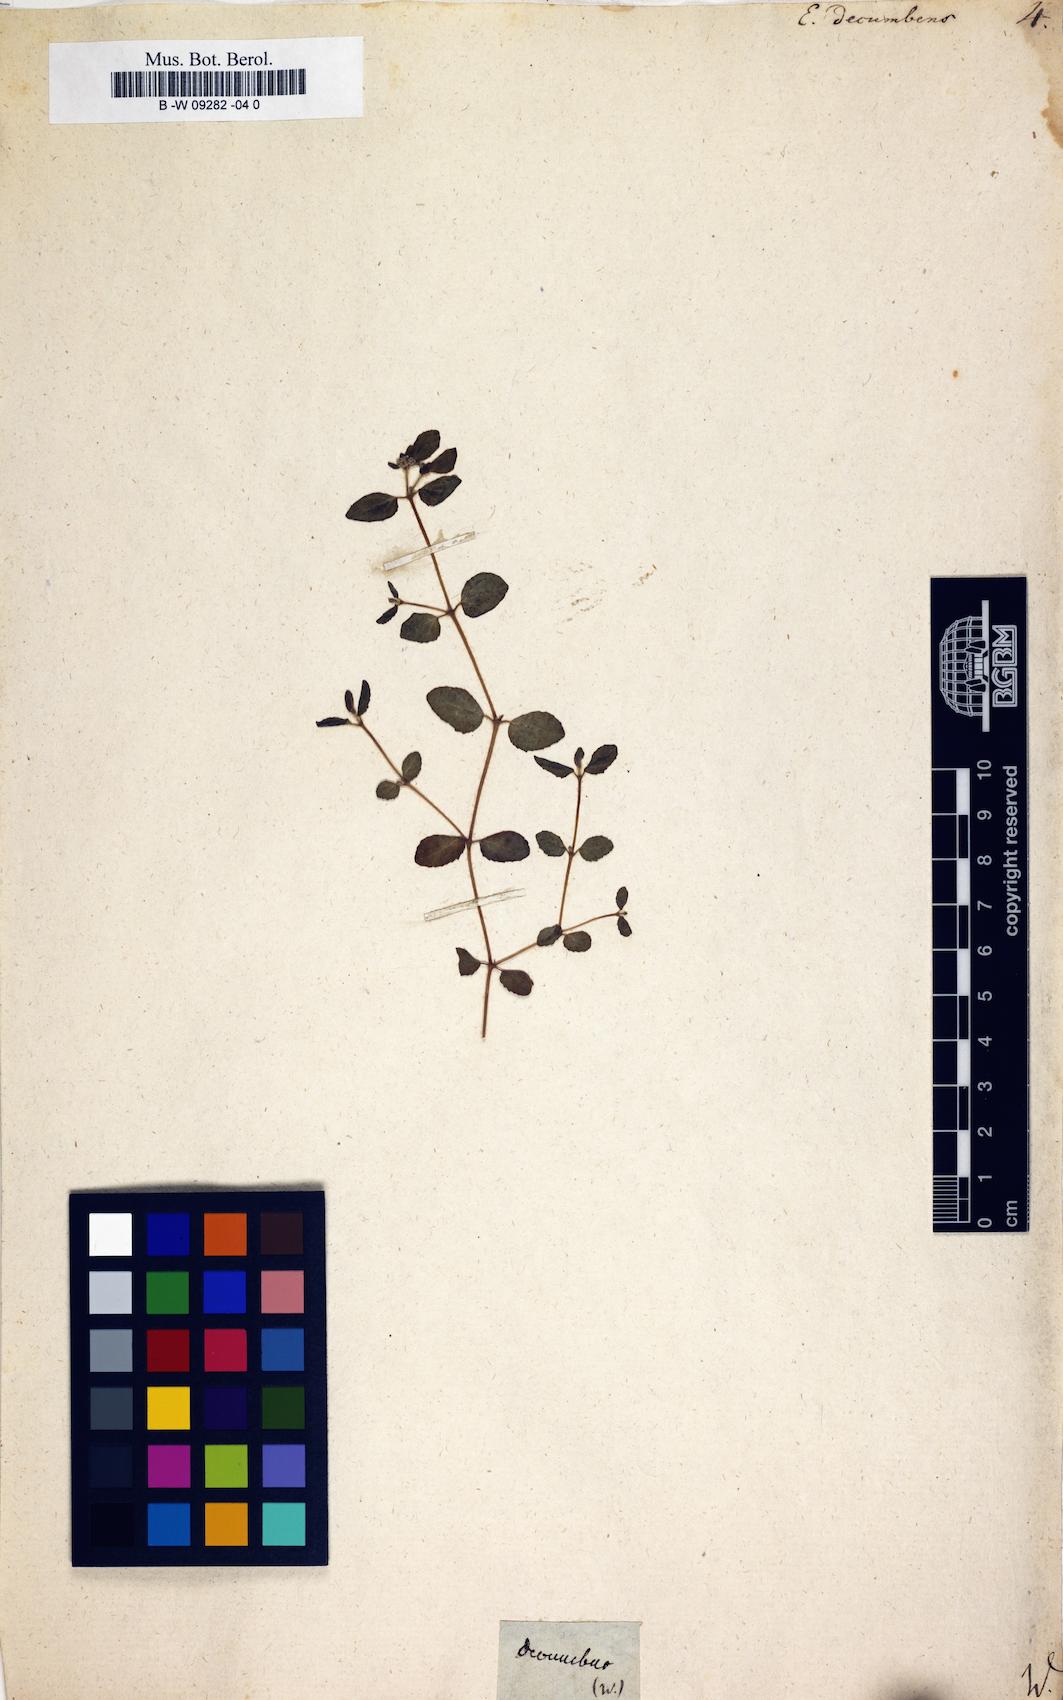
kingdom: Plantae
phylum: Tracheophyta
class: Magnoliopsida
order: Malpighiales
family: Euphorbiaceae
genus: Euphorbia
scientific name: Euphorbia indica
